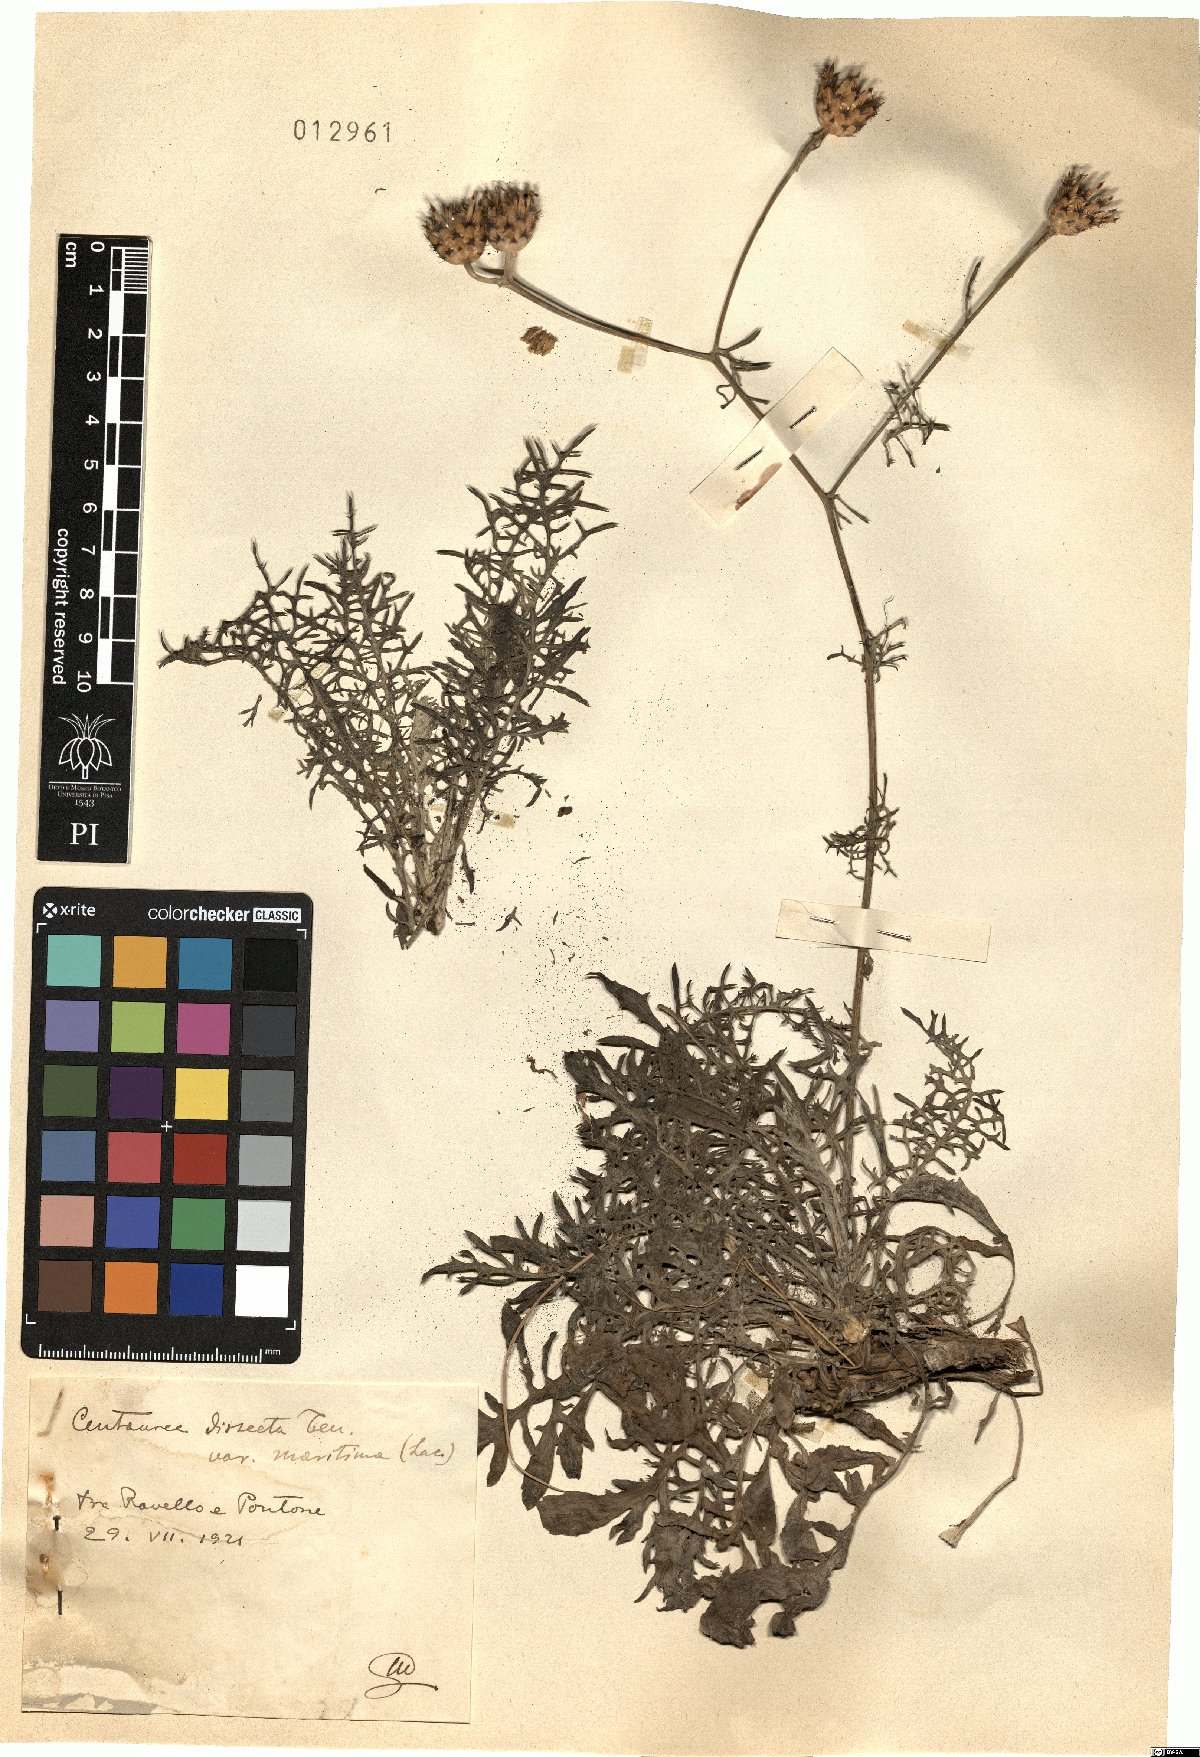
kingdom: Plantae
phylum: Tracheophyta
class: Magnoliopsida
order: Asterales
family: Asteraceae
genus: Centaurea
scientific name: Centaurea tenorei
